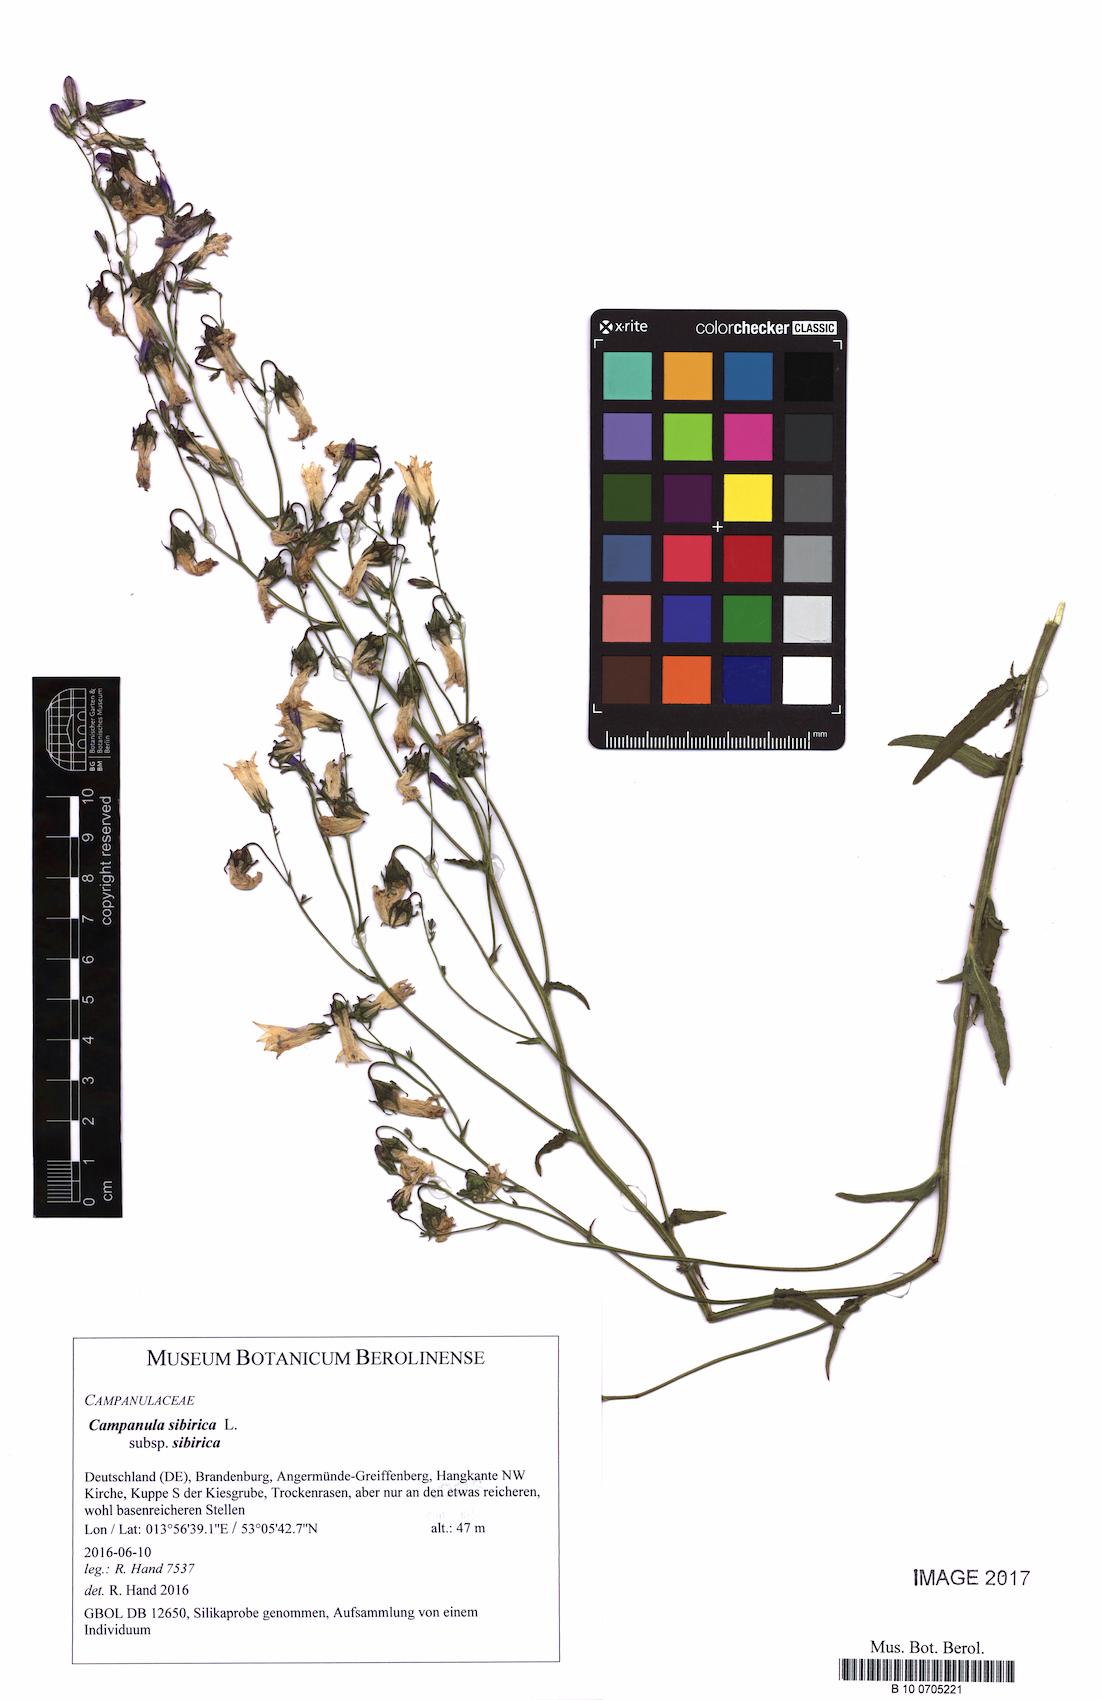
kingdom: Plantae
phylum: Tracheophyta
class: Magnoliopsida
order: Asterales
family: Campanulaceae
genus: Campanula
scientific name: Campanula sibirica
